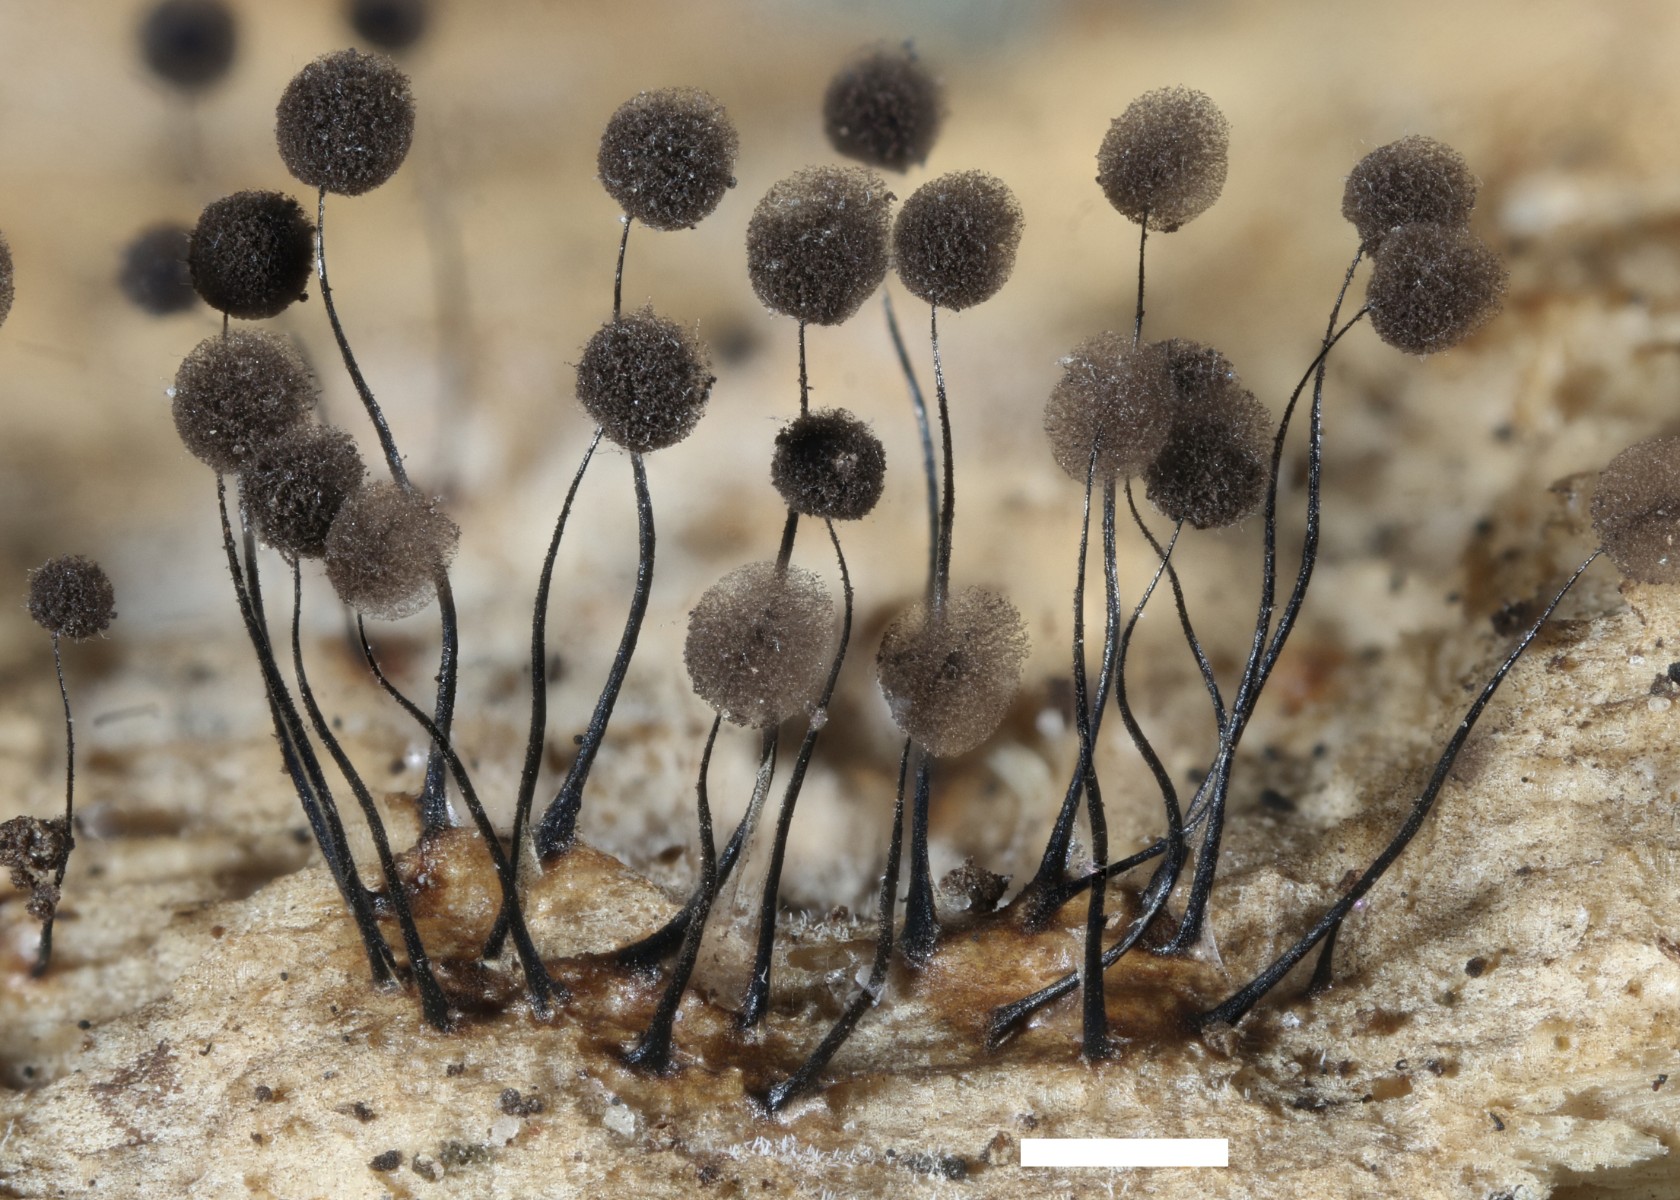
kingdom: Protozoa
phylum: Mycetozoa
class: Myxomycetes
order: Stemonitidales
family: Stemonitidaceae
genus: Comatricha
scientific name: Comatricha nigra
